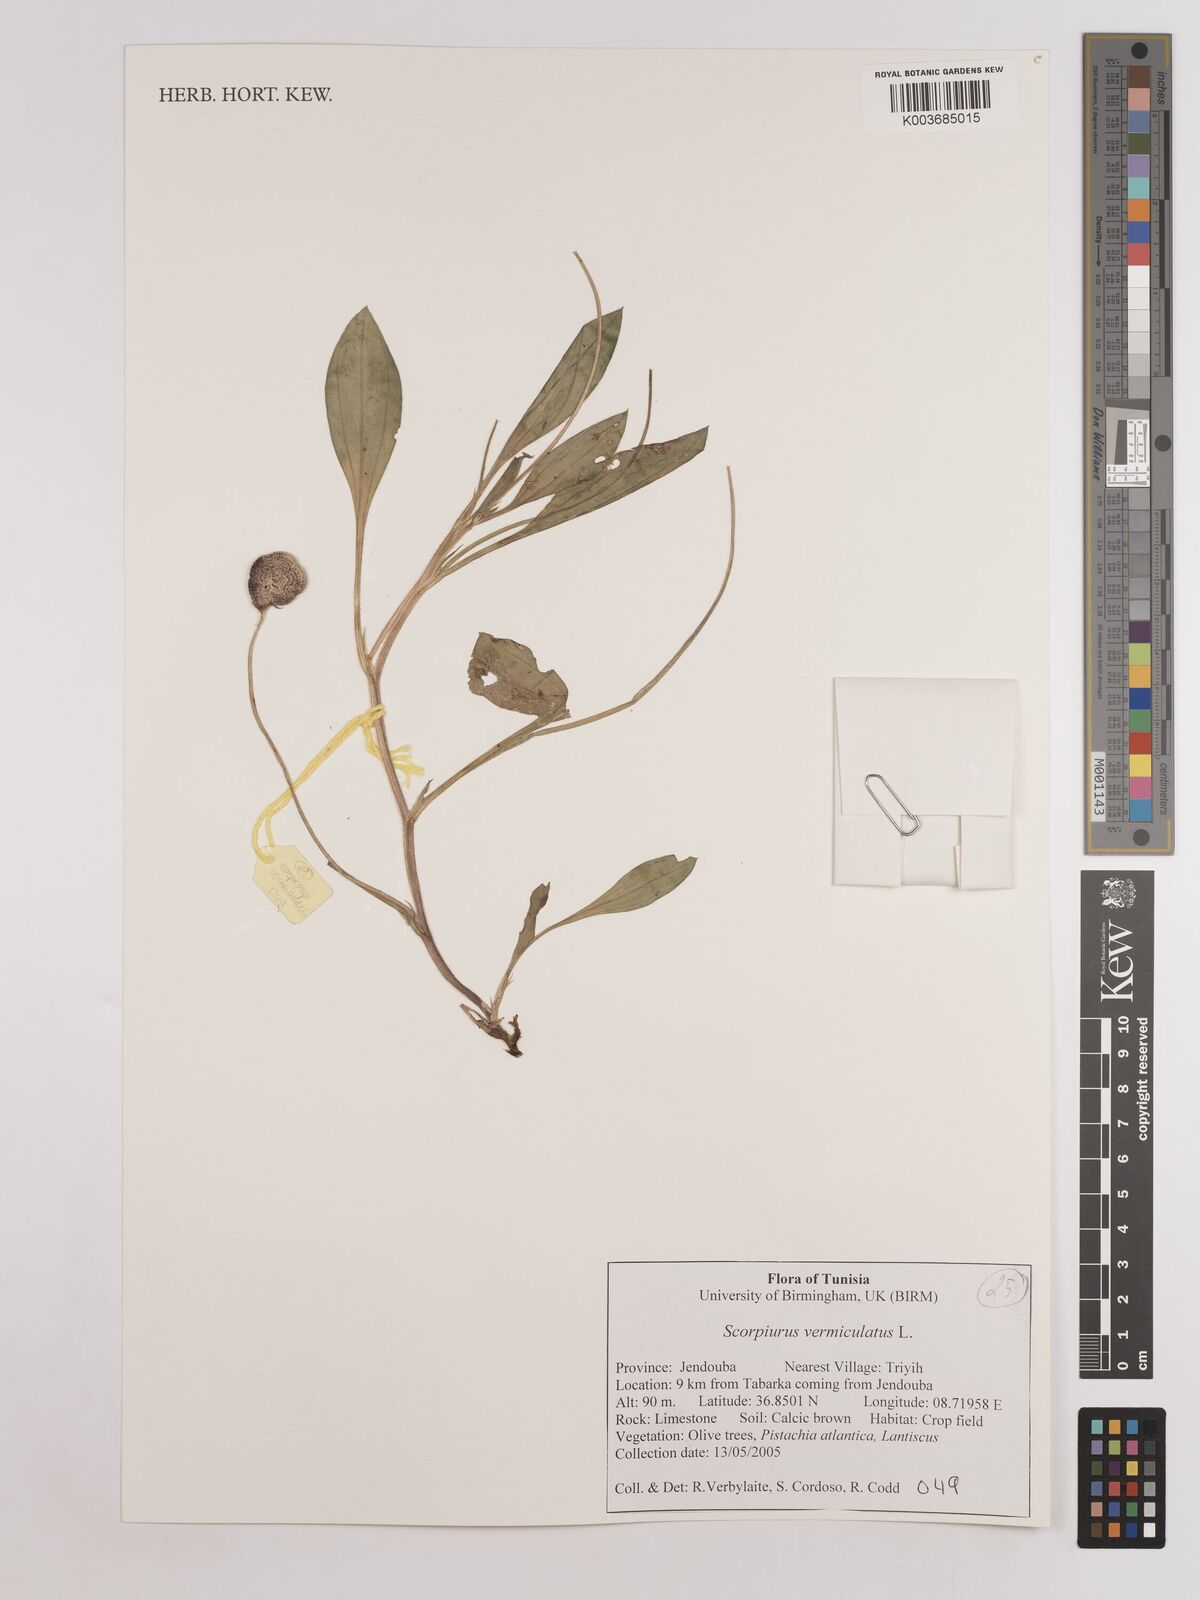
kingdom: Plantae
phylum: Tracheophyta
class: Magnoliopsida
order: Fabales
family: Fabaceae
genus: Scorpiurus
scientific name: Scorpiurus vermiculatus
